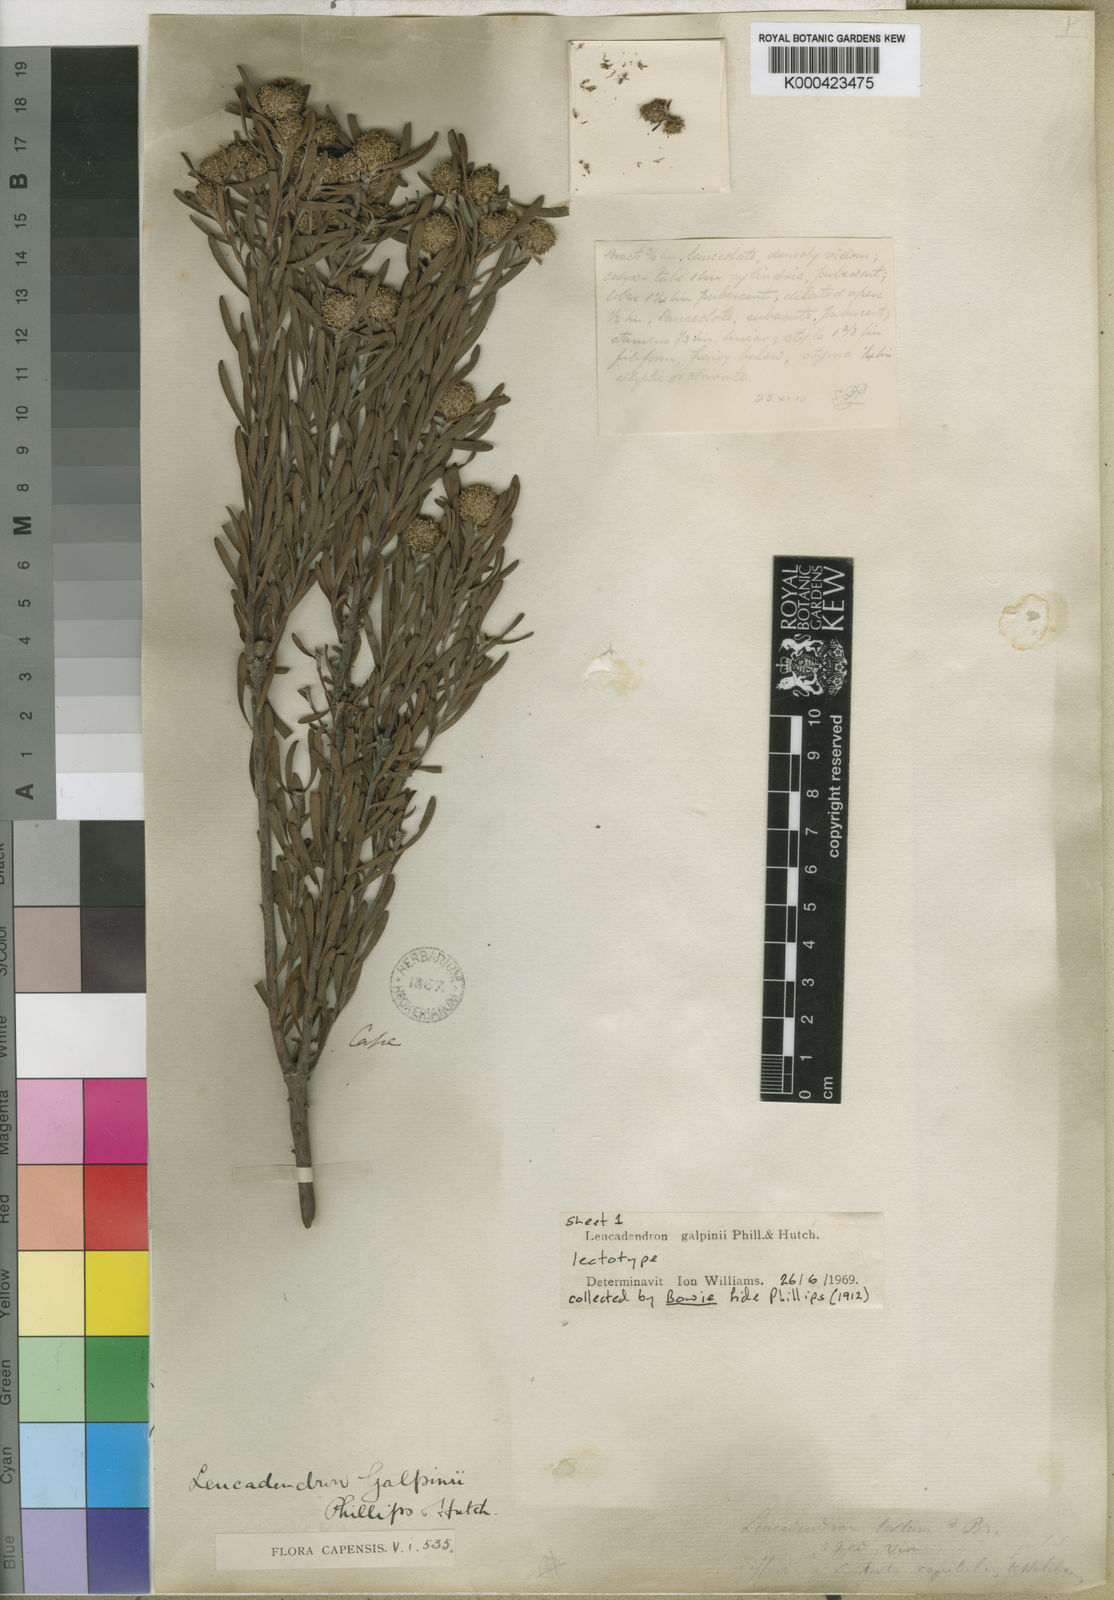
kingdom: Plantae
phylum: Tracheophyta
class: Magnoliopsida
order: Proteales
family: Proteaceae
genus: Leucadendron
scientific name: Leucadendron galpinii
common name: Hairless conebush
